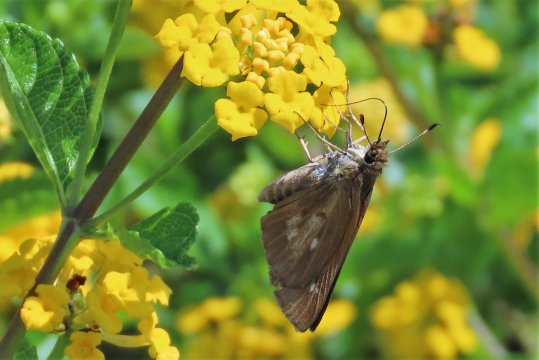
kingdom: Animalia
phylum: Arthropoda
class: Insecta
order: Lepidoptera
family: Hesperiidae
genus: Poanes
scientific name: Poanes viator
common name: Broad-winged Skipper
